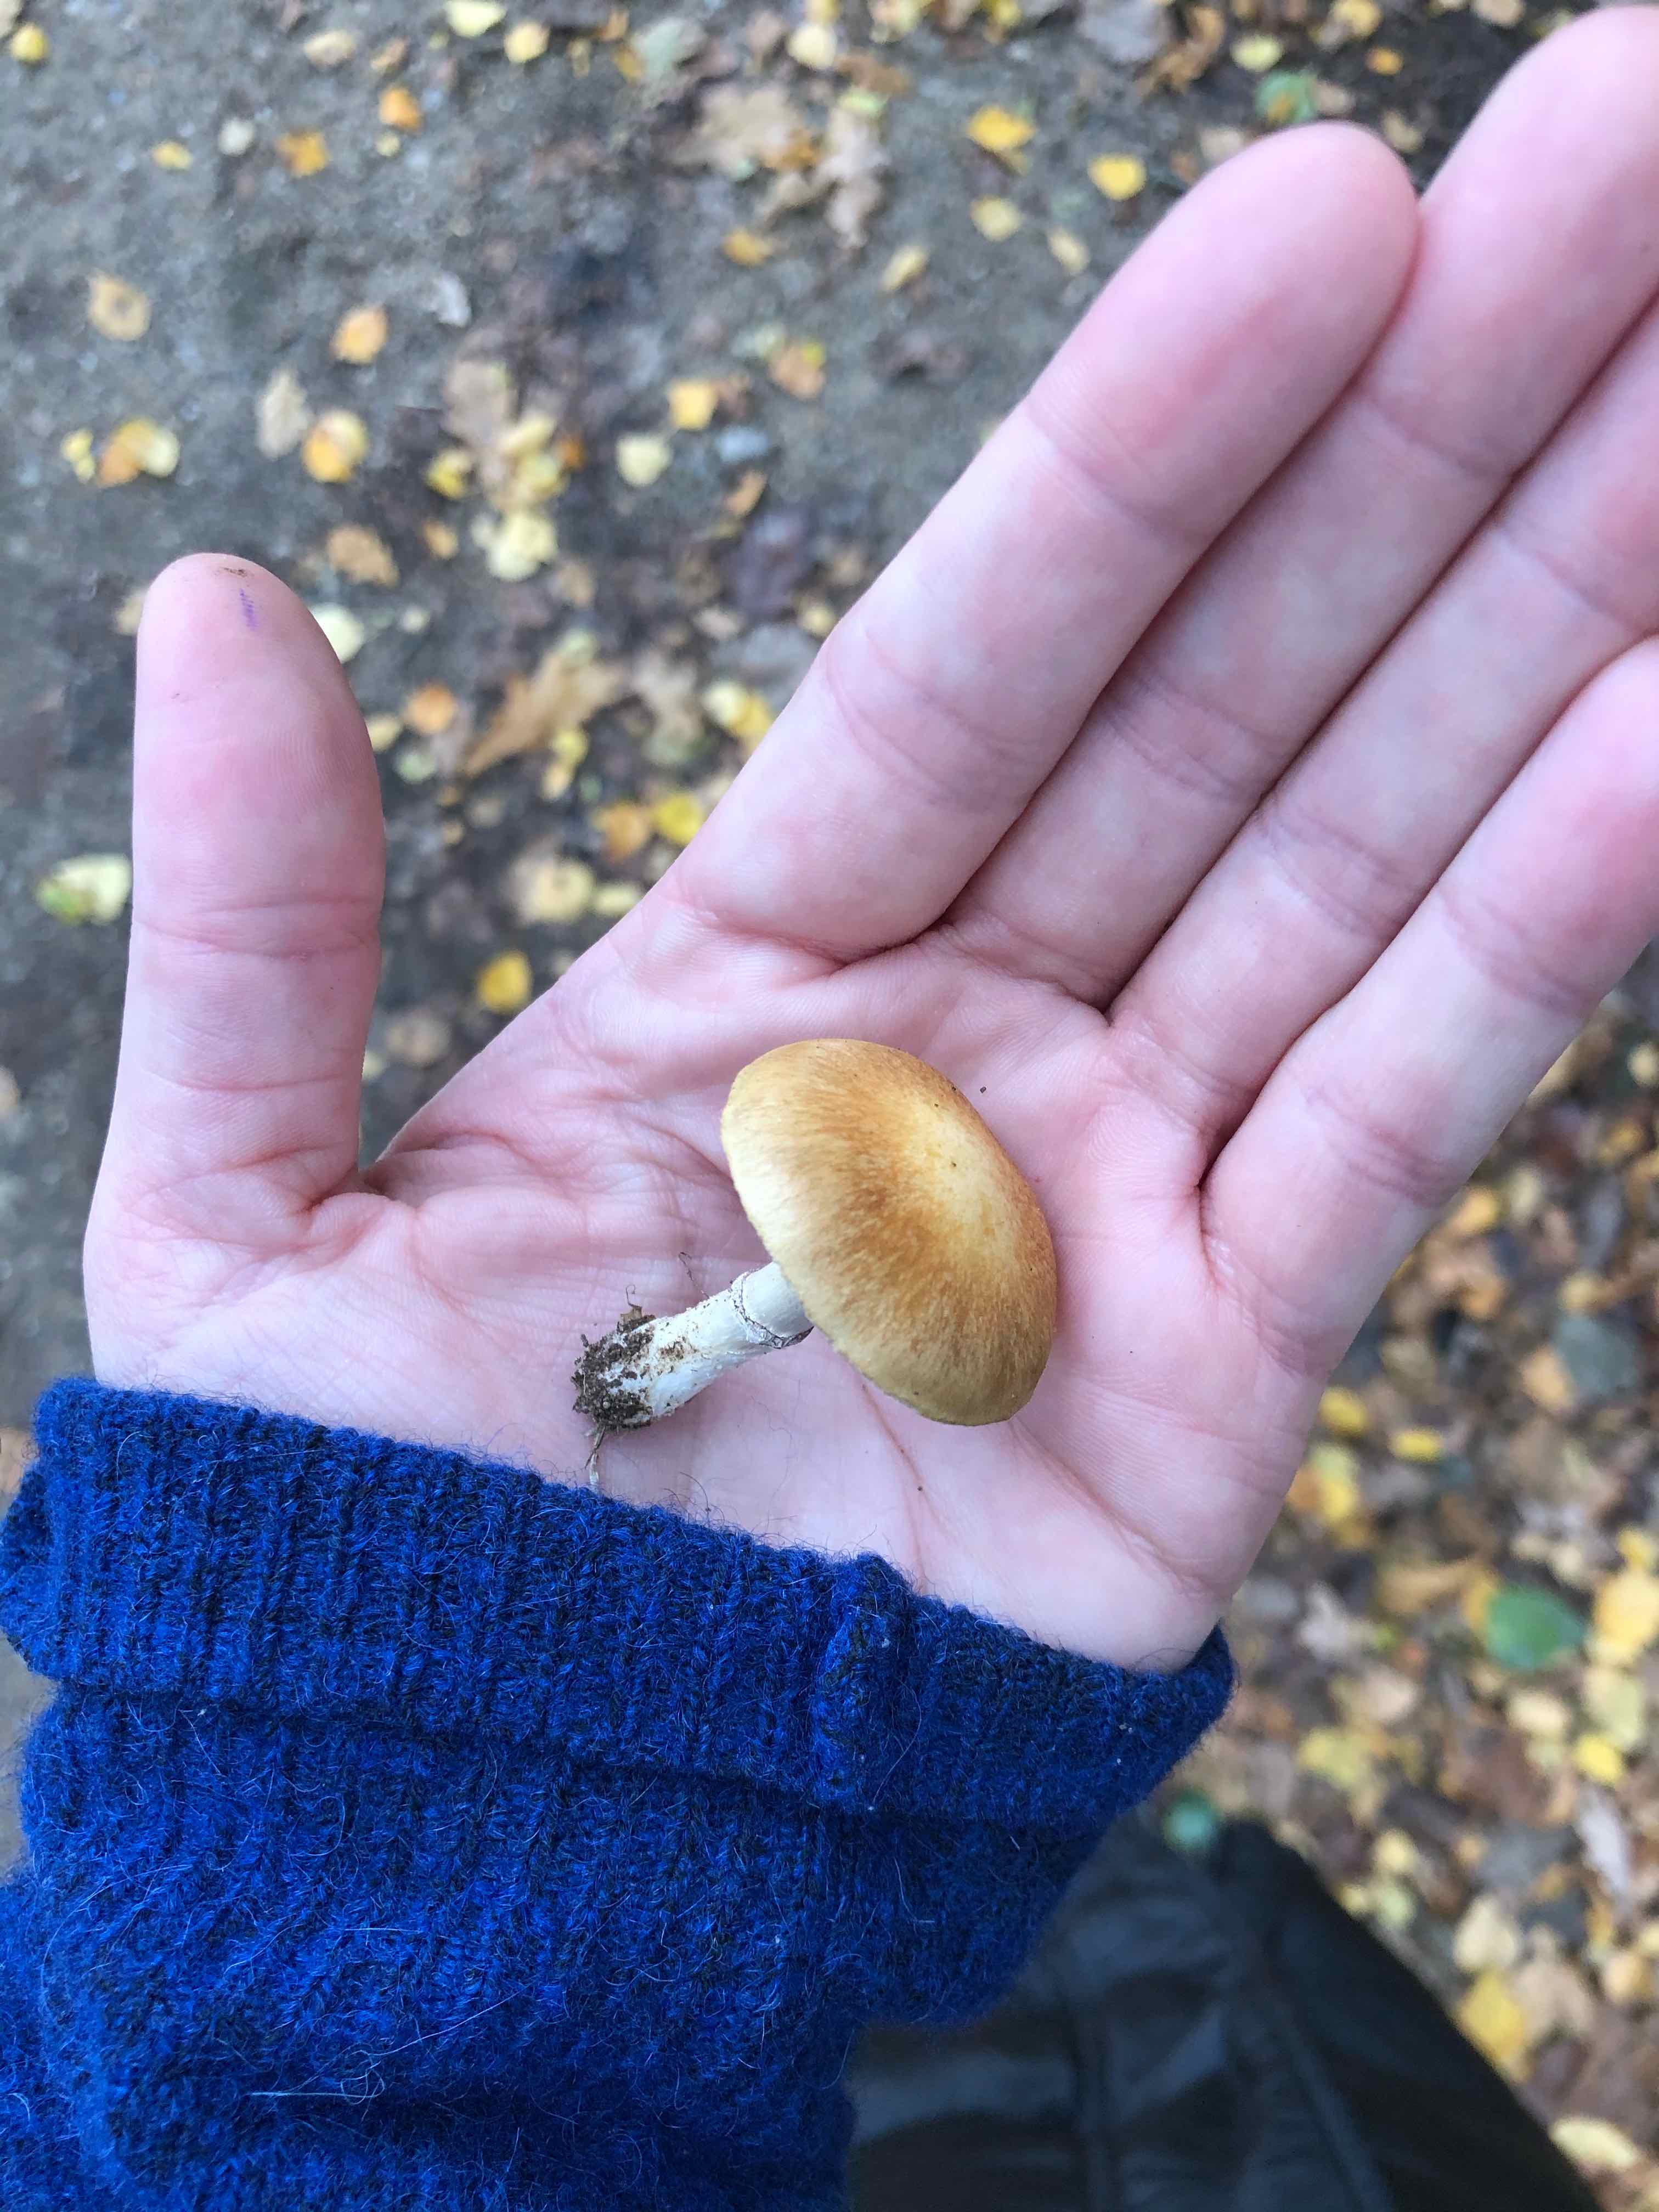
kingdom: Fungi
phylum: Basidiomycota
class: Agaricomycetes
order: Agaricales
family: Hymenogastraceae
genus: Psilocybe
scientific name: Psilocybe coronilla
